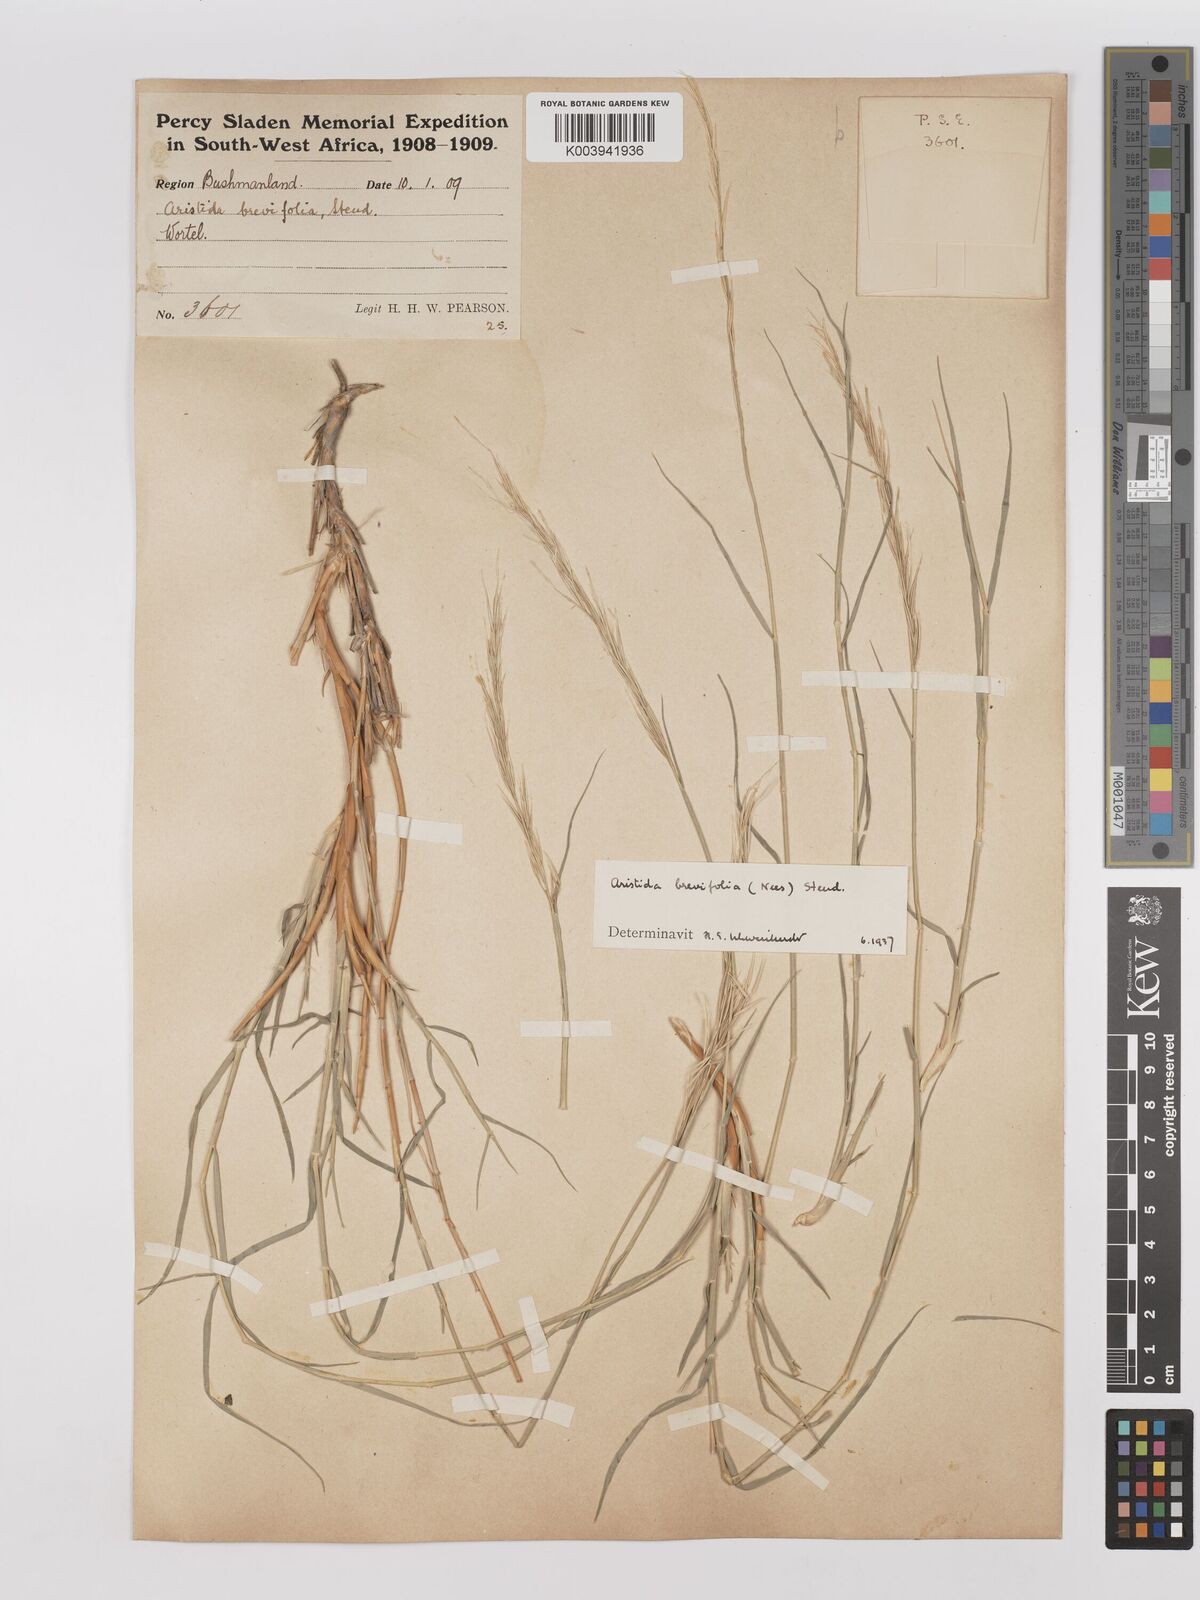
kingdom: Plantae
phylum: Tracheophyta
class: Liliopsida
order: Poales
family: Poaceae
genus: Stipagrostis
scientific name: Stipagrostis brevifolia
